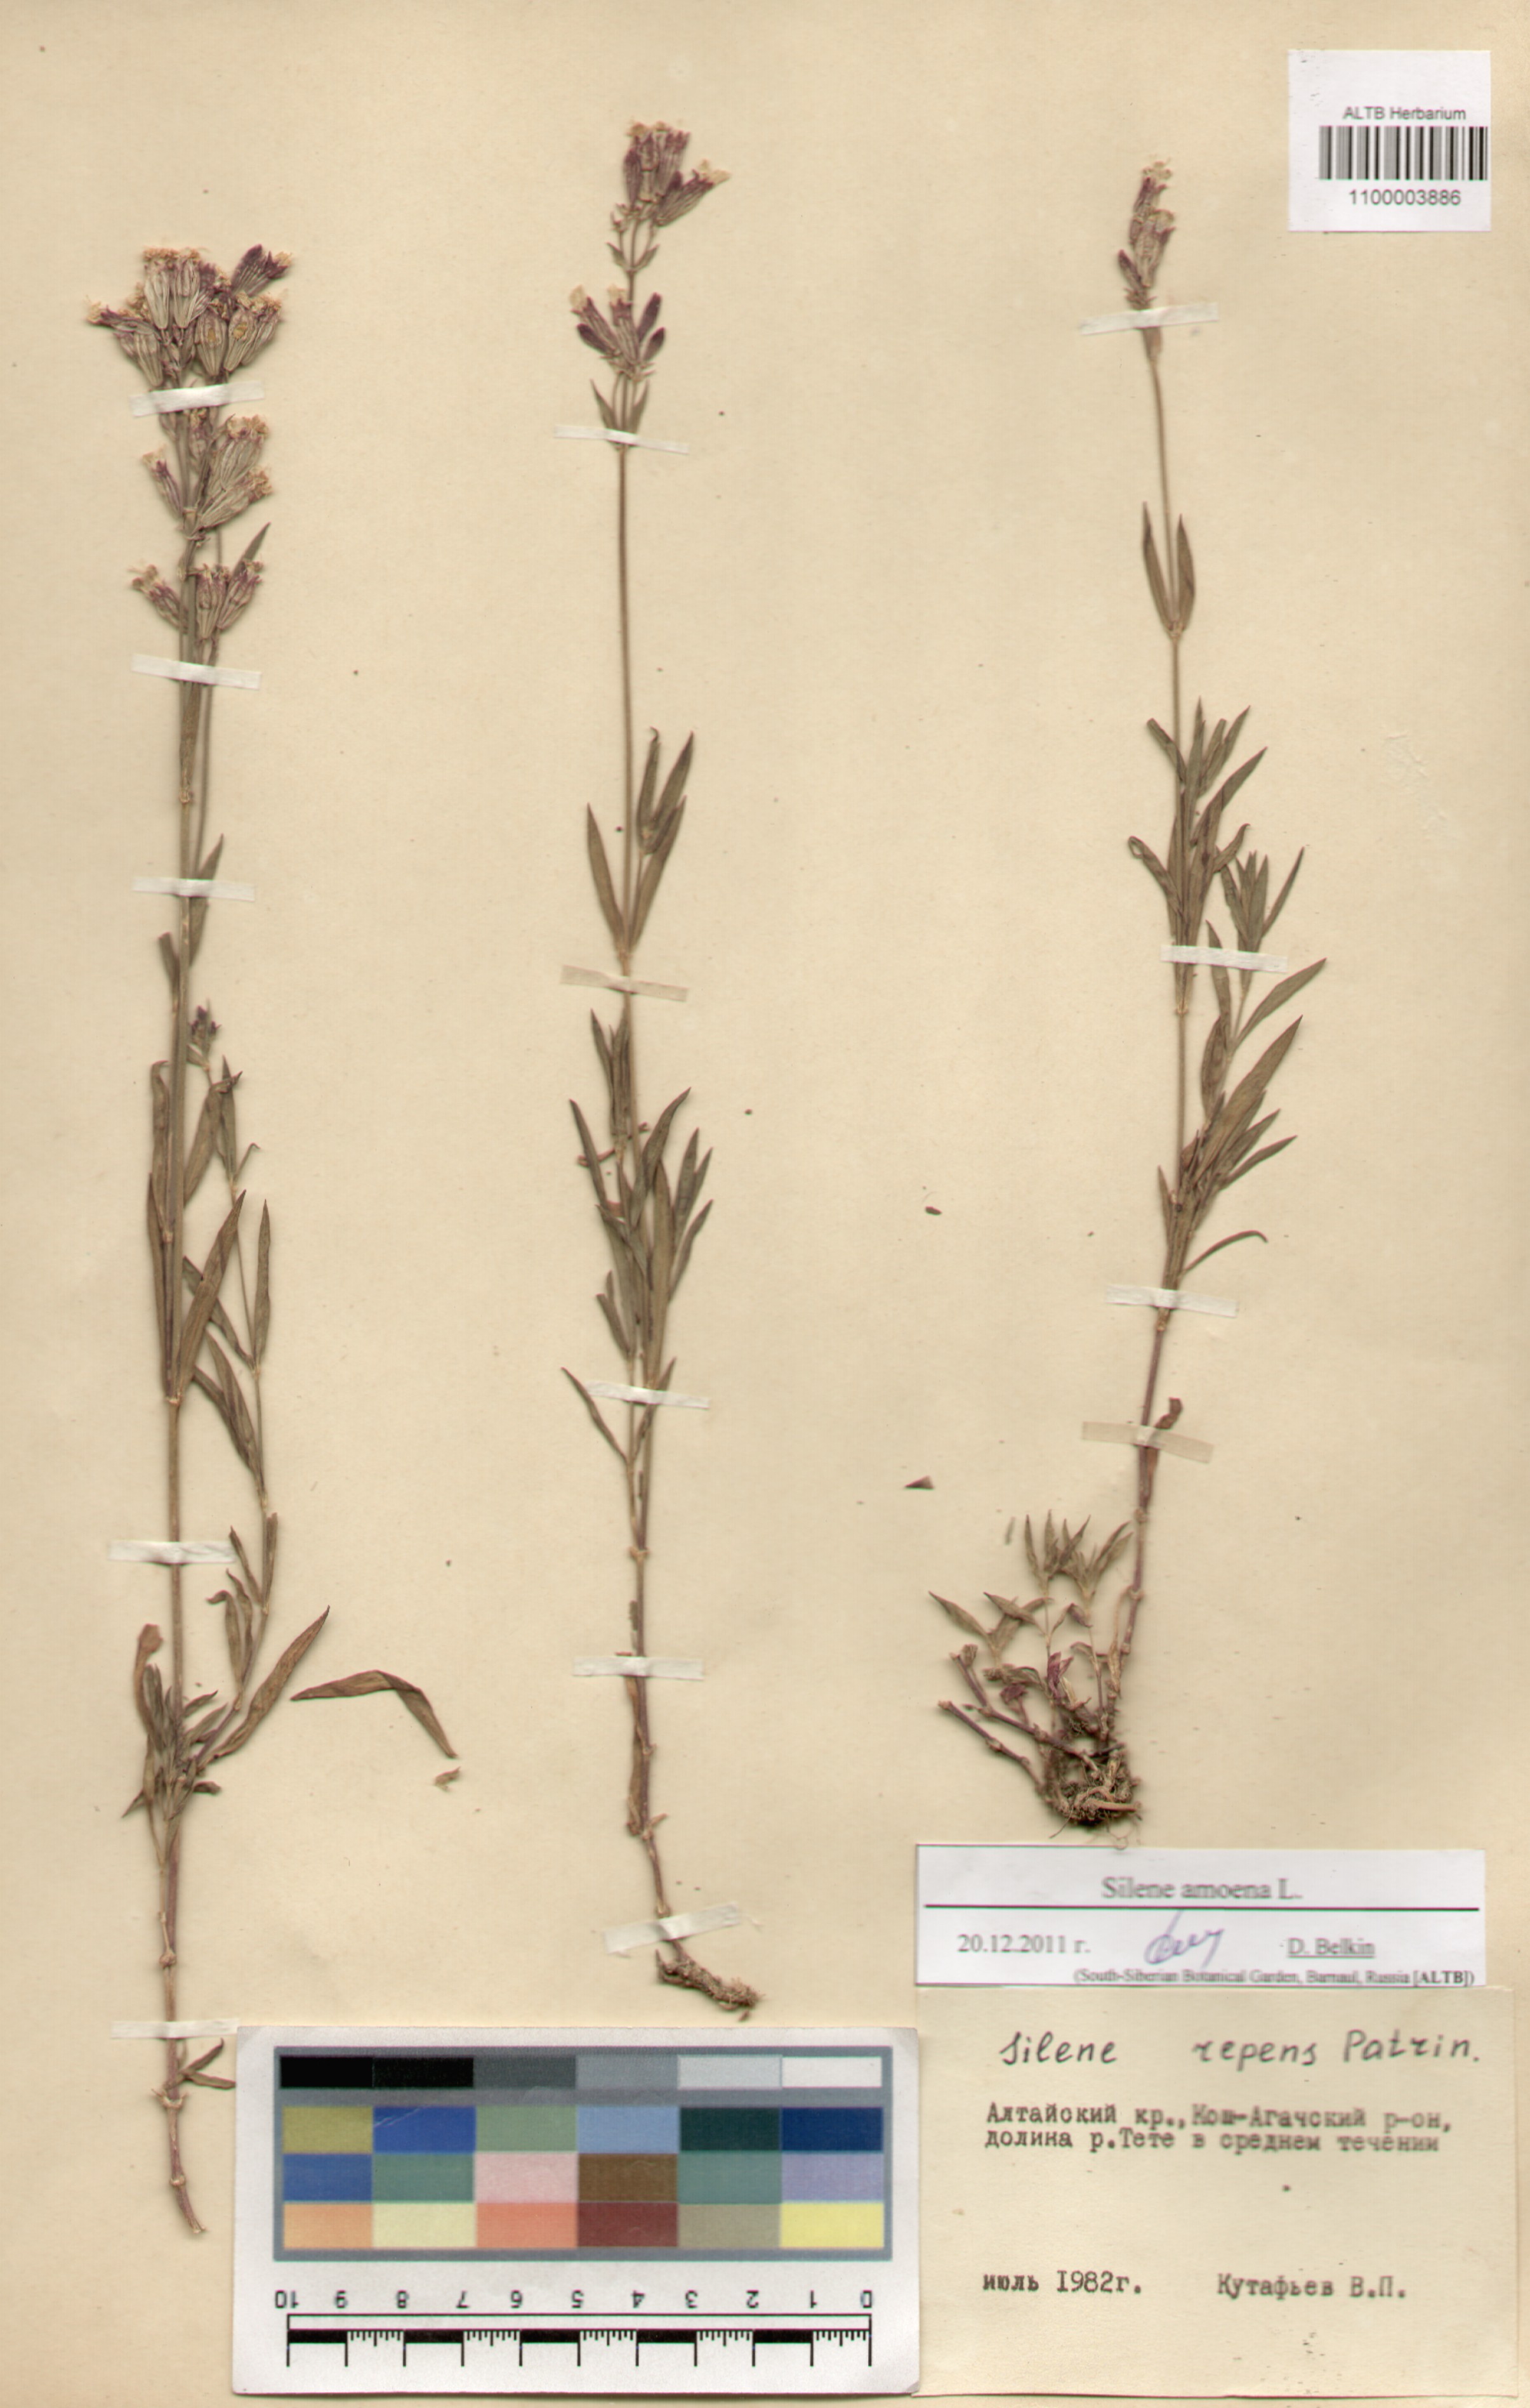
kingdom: Plantae
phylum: Tracheophyta
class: Magnoliopsida
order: Caryophyllales
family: Caryophyllaceae
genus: Silene
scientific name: Silene amoena
